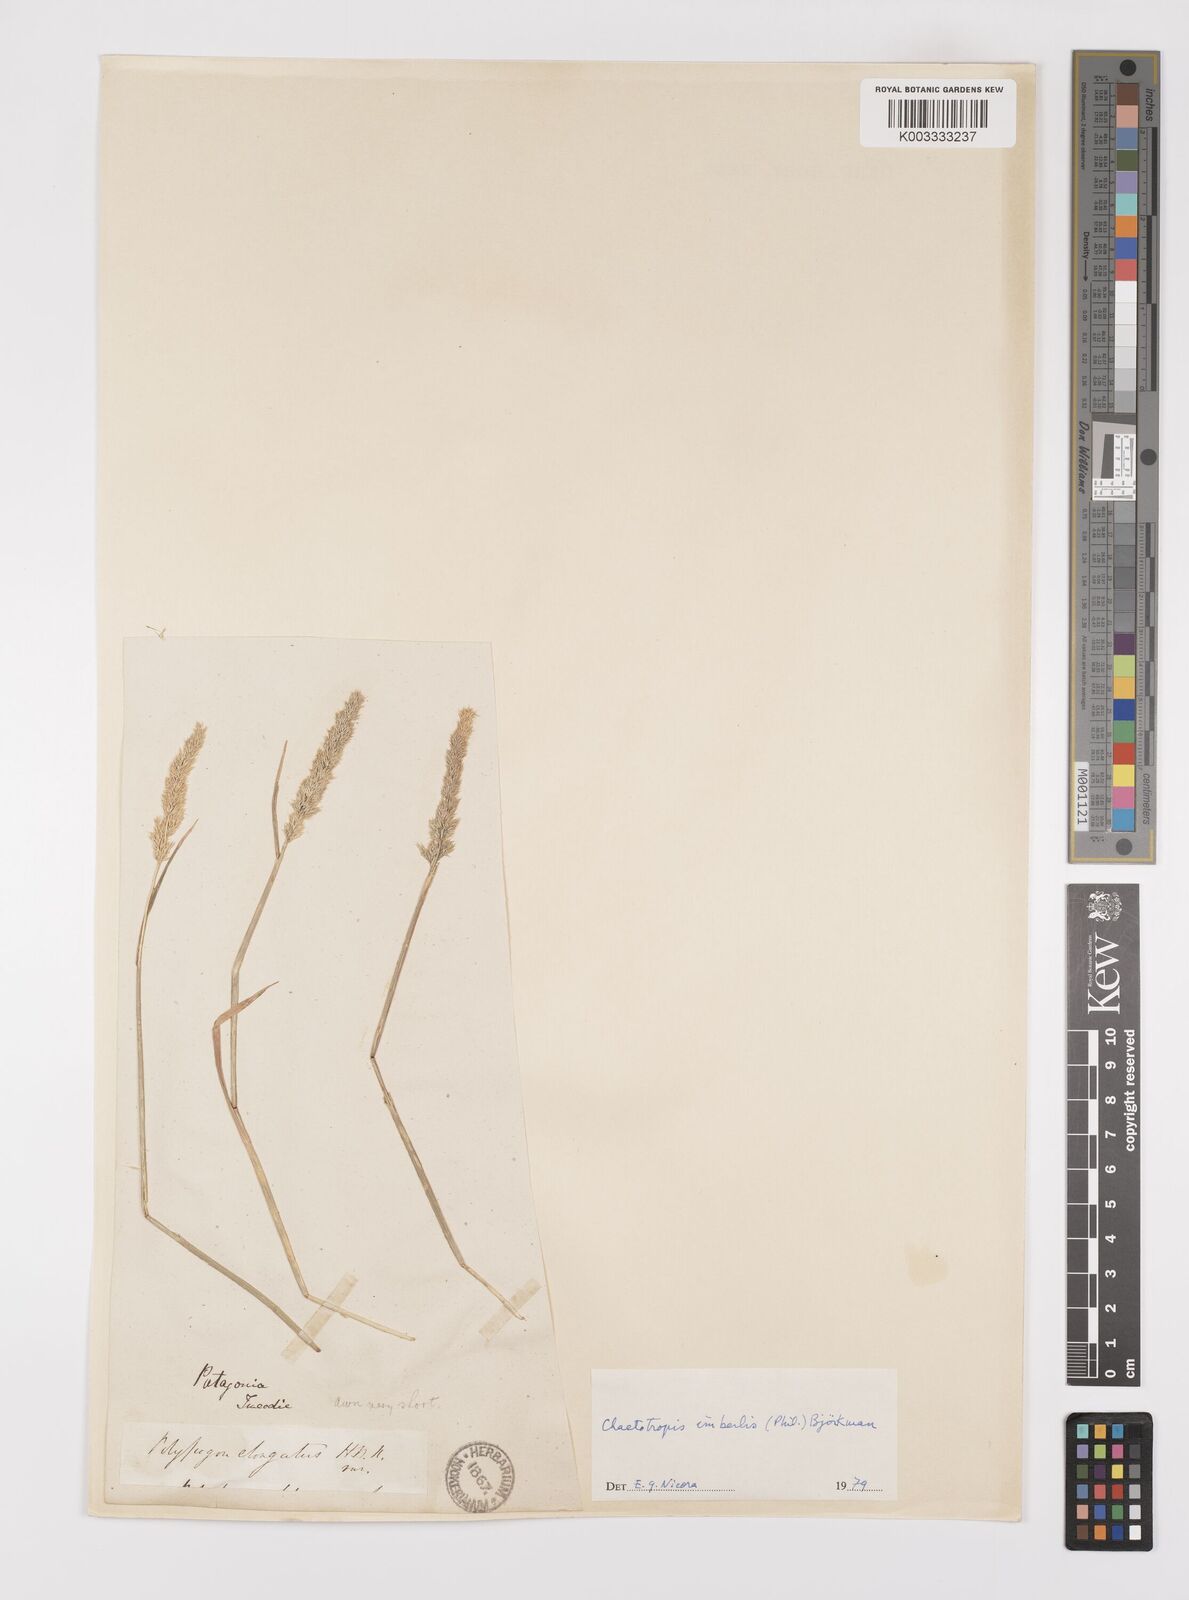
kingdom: Plantae
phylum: Tracheophyta
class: Liliopsida
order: Poales
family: Poaceae
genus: Polypogon
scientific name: Polypogon imberbis
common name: Beardless rabbitsfoot grass
